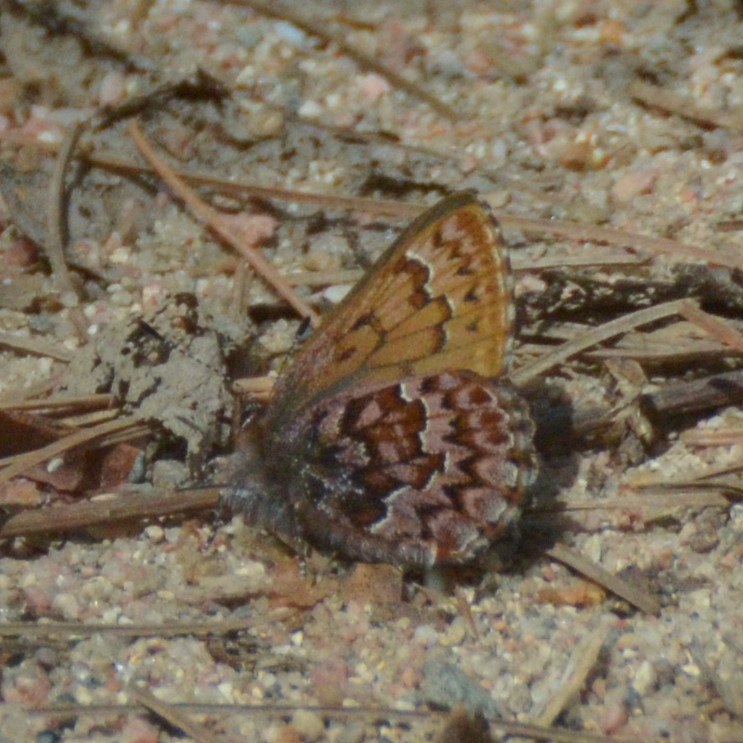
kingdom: Animalia
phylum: Arthropoda
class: Insecta
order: Lepidoptera
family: Lycaenidae
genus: Incisalia
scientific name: Incisalia eryphon
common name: Western Pine Elfin
